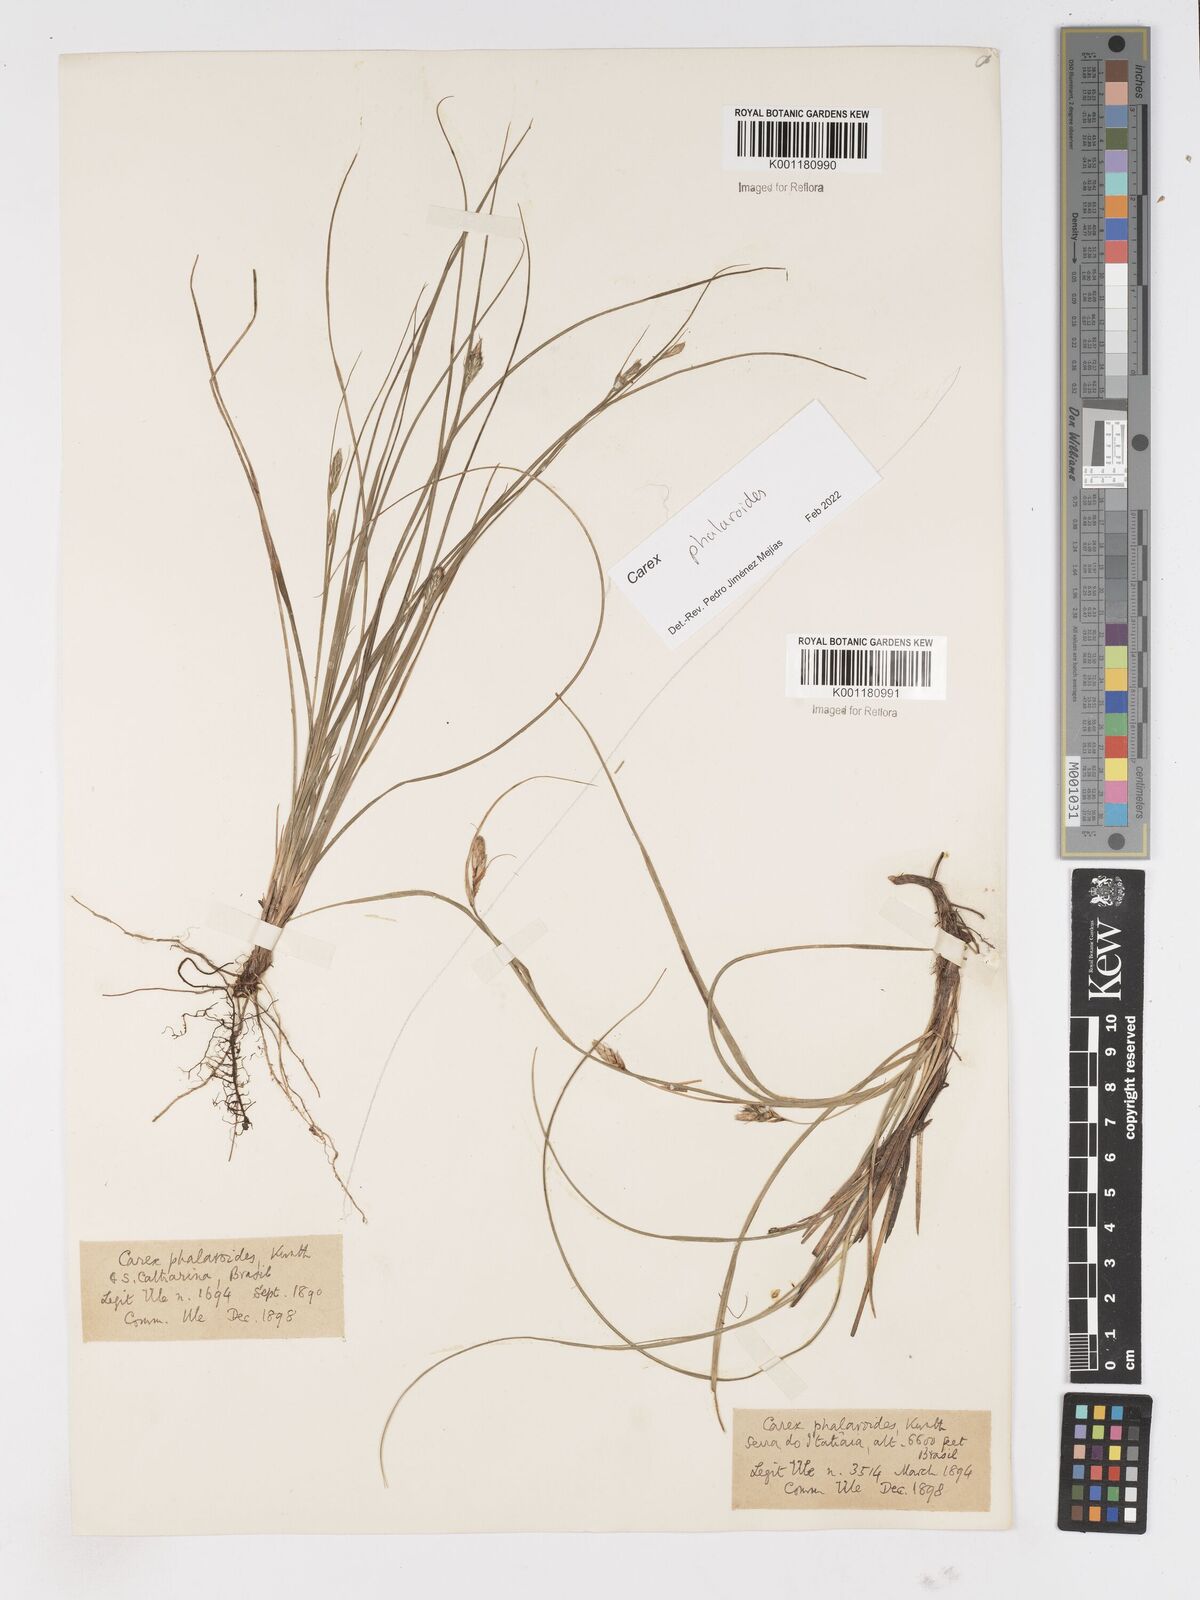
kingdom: Plantae
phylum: Tracheophyta
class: Liliopsida
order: Poales
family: Cyperaceae
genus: Carex
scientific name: Carex phalaroides
